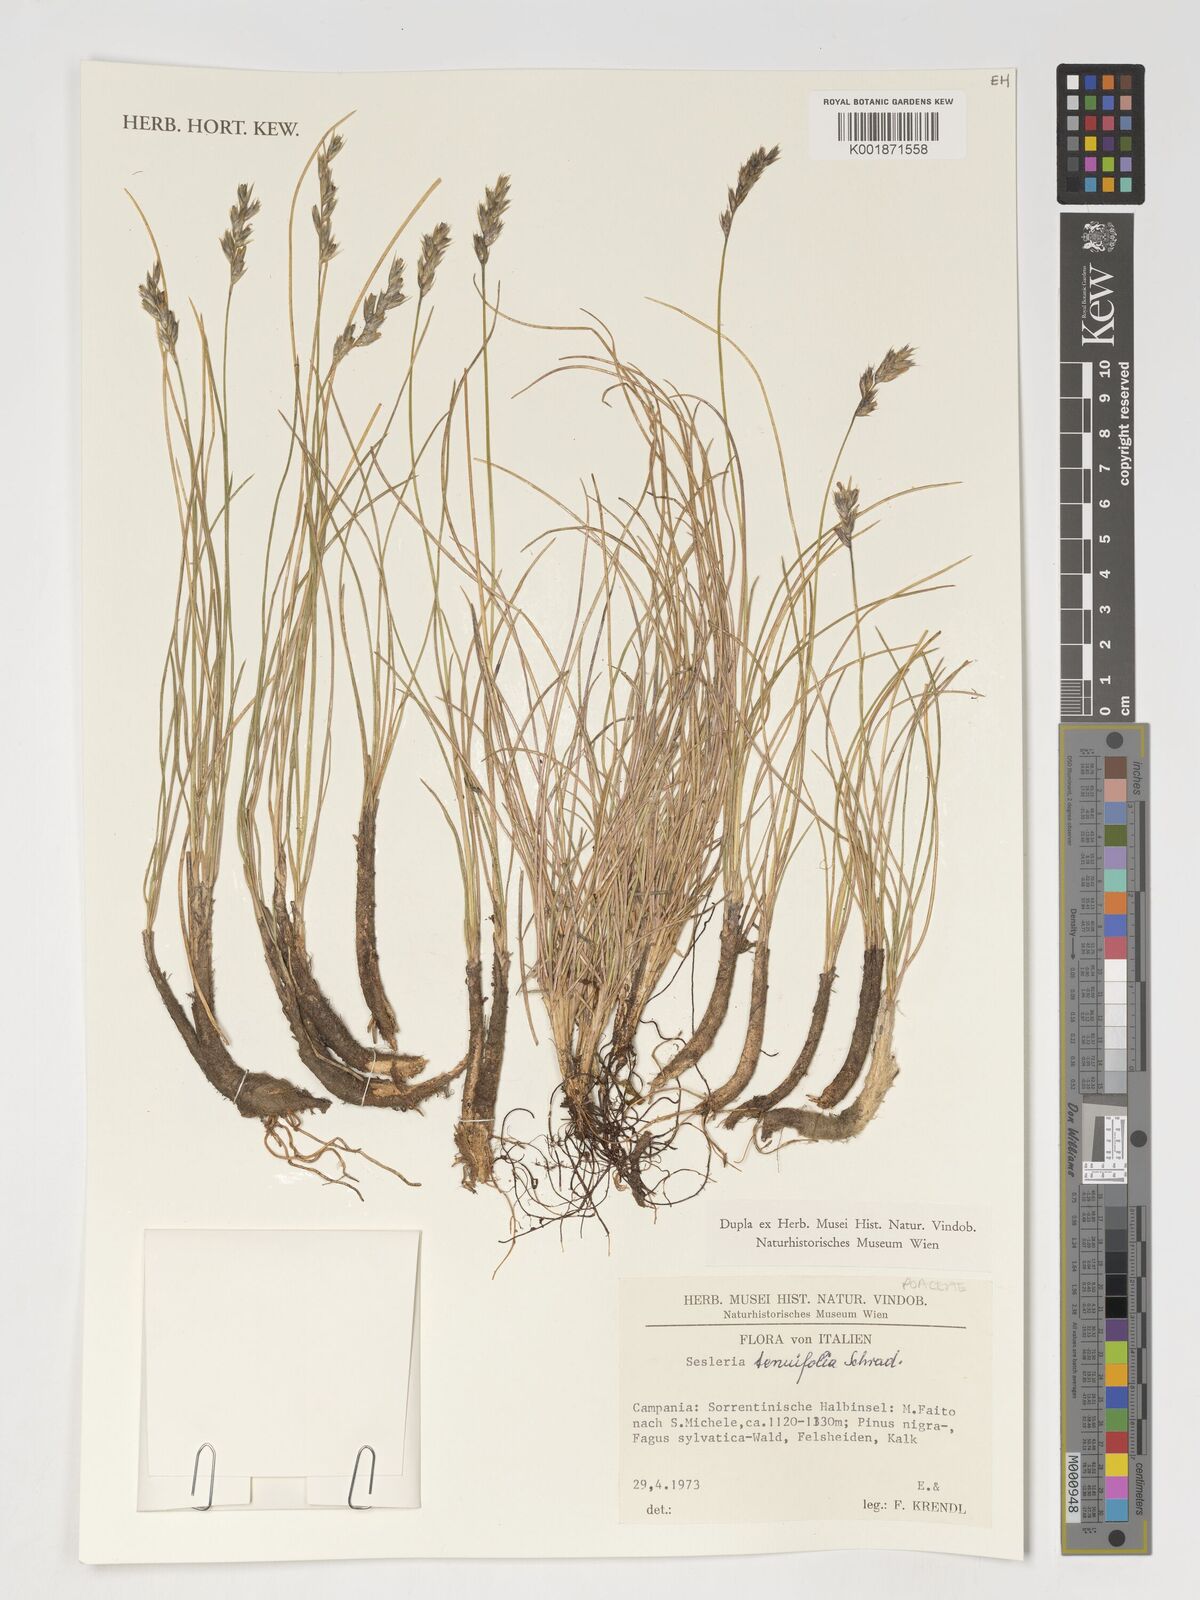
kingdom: Plantae
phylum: Tracheophyta
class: Liliopsida
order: Poales
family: Poaceae
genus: Sesleria
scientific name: Sesleria juncifolia
